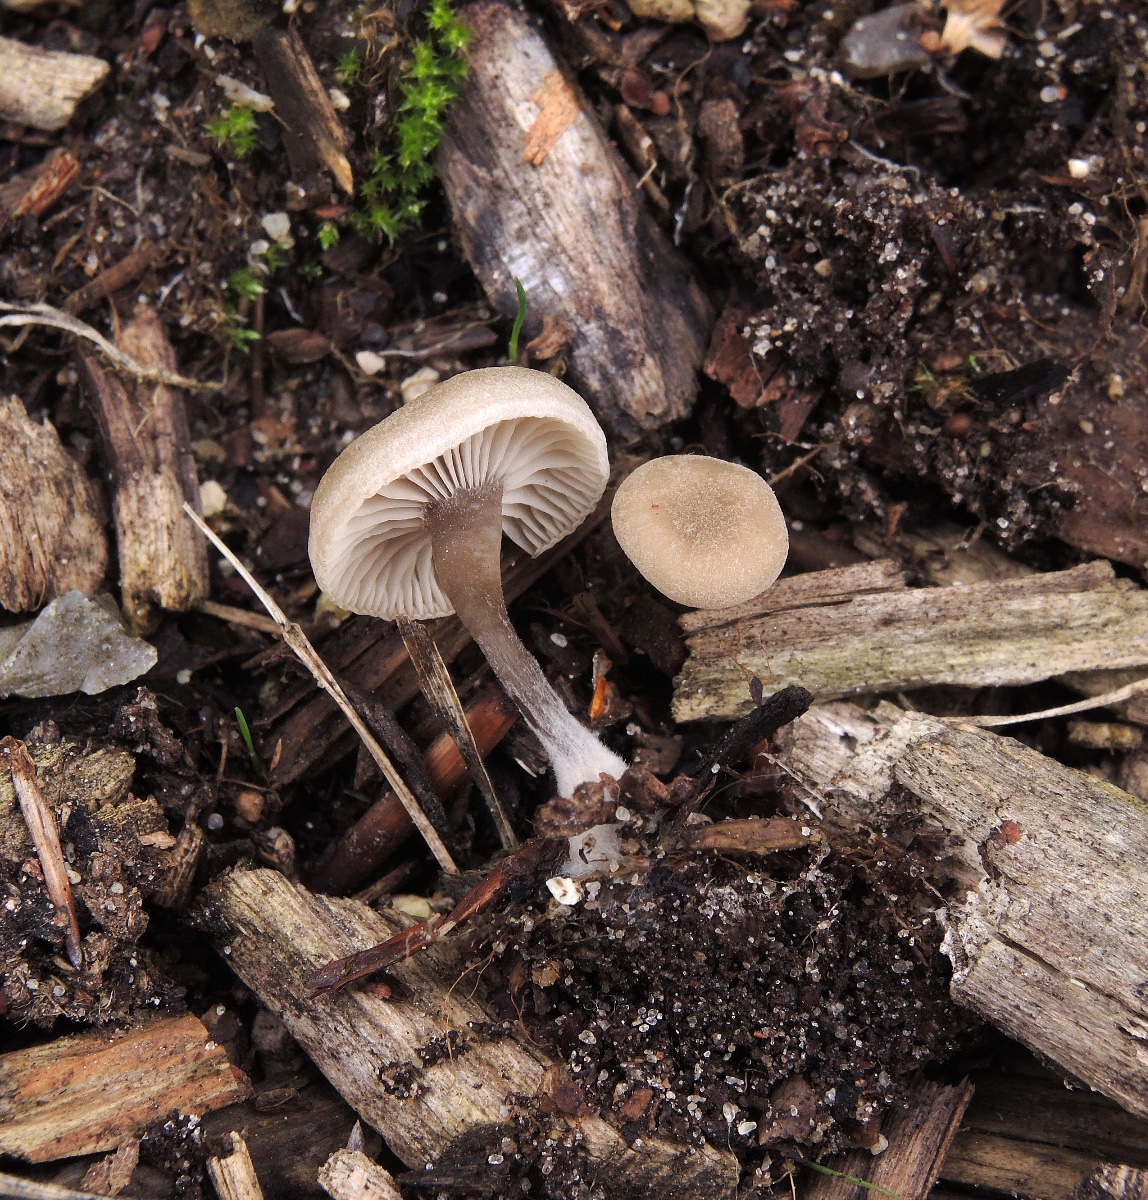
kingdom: Fungi
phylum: Basidiomycota
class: Agaricomycetes
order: Agaricales
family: Tricholomataceae
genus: Omphalina
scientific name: Omphalina microsperma
